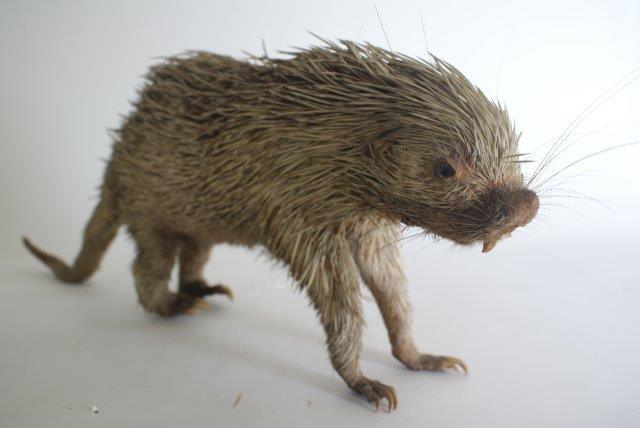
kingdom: Animalia
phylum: Chordata
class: Mammalia
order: Rodentia
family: Erethizontidae
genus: Coendou
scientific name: Coendou prehensilis
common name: Brazilian Porcupine
